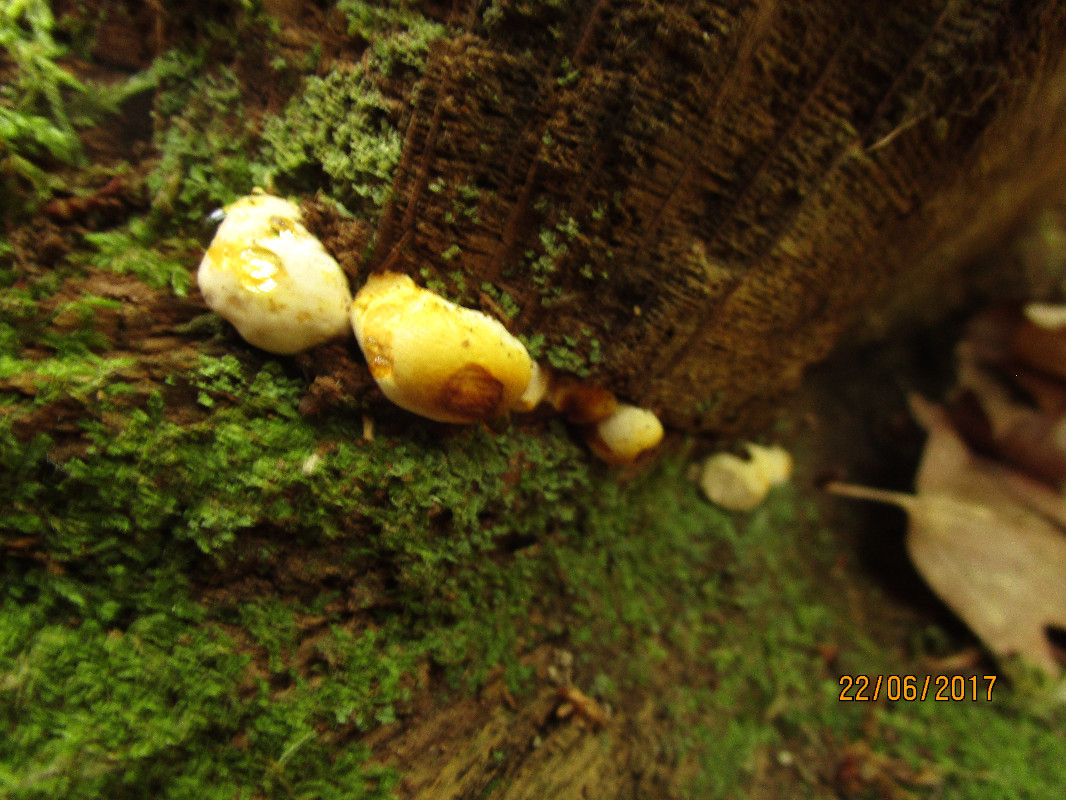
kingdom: Fungi
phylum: Basidiomycota
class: Agaricomycetes
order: Polyporales
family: Fomitopsidaceae
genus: Buglossoporus
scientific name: Buglossoporus quercinus
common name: egetunge
